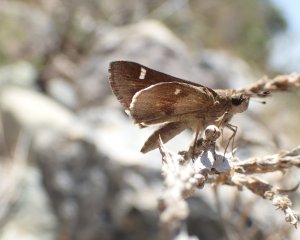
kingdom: Animalia
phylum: Arthropoda
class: Insecta
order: Lepidoptera
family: Hesperiidae
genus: Lerodea
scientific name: Lerodea arabus
